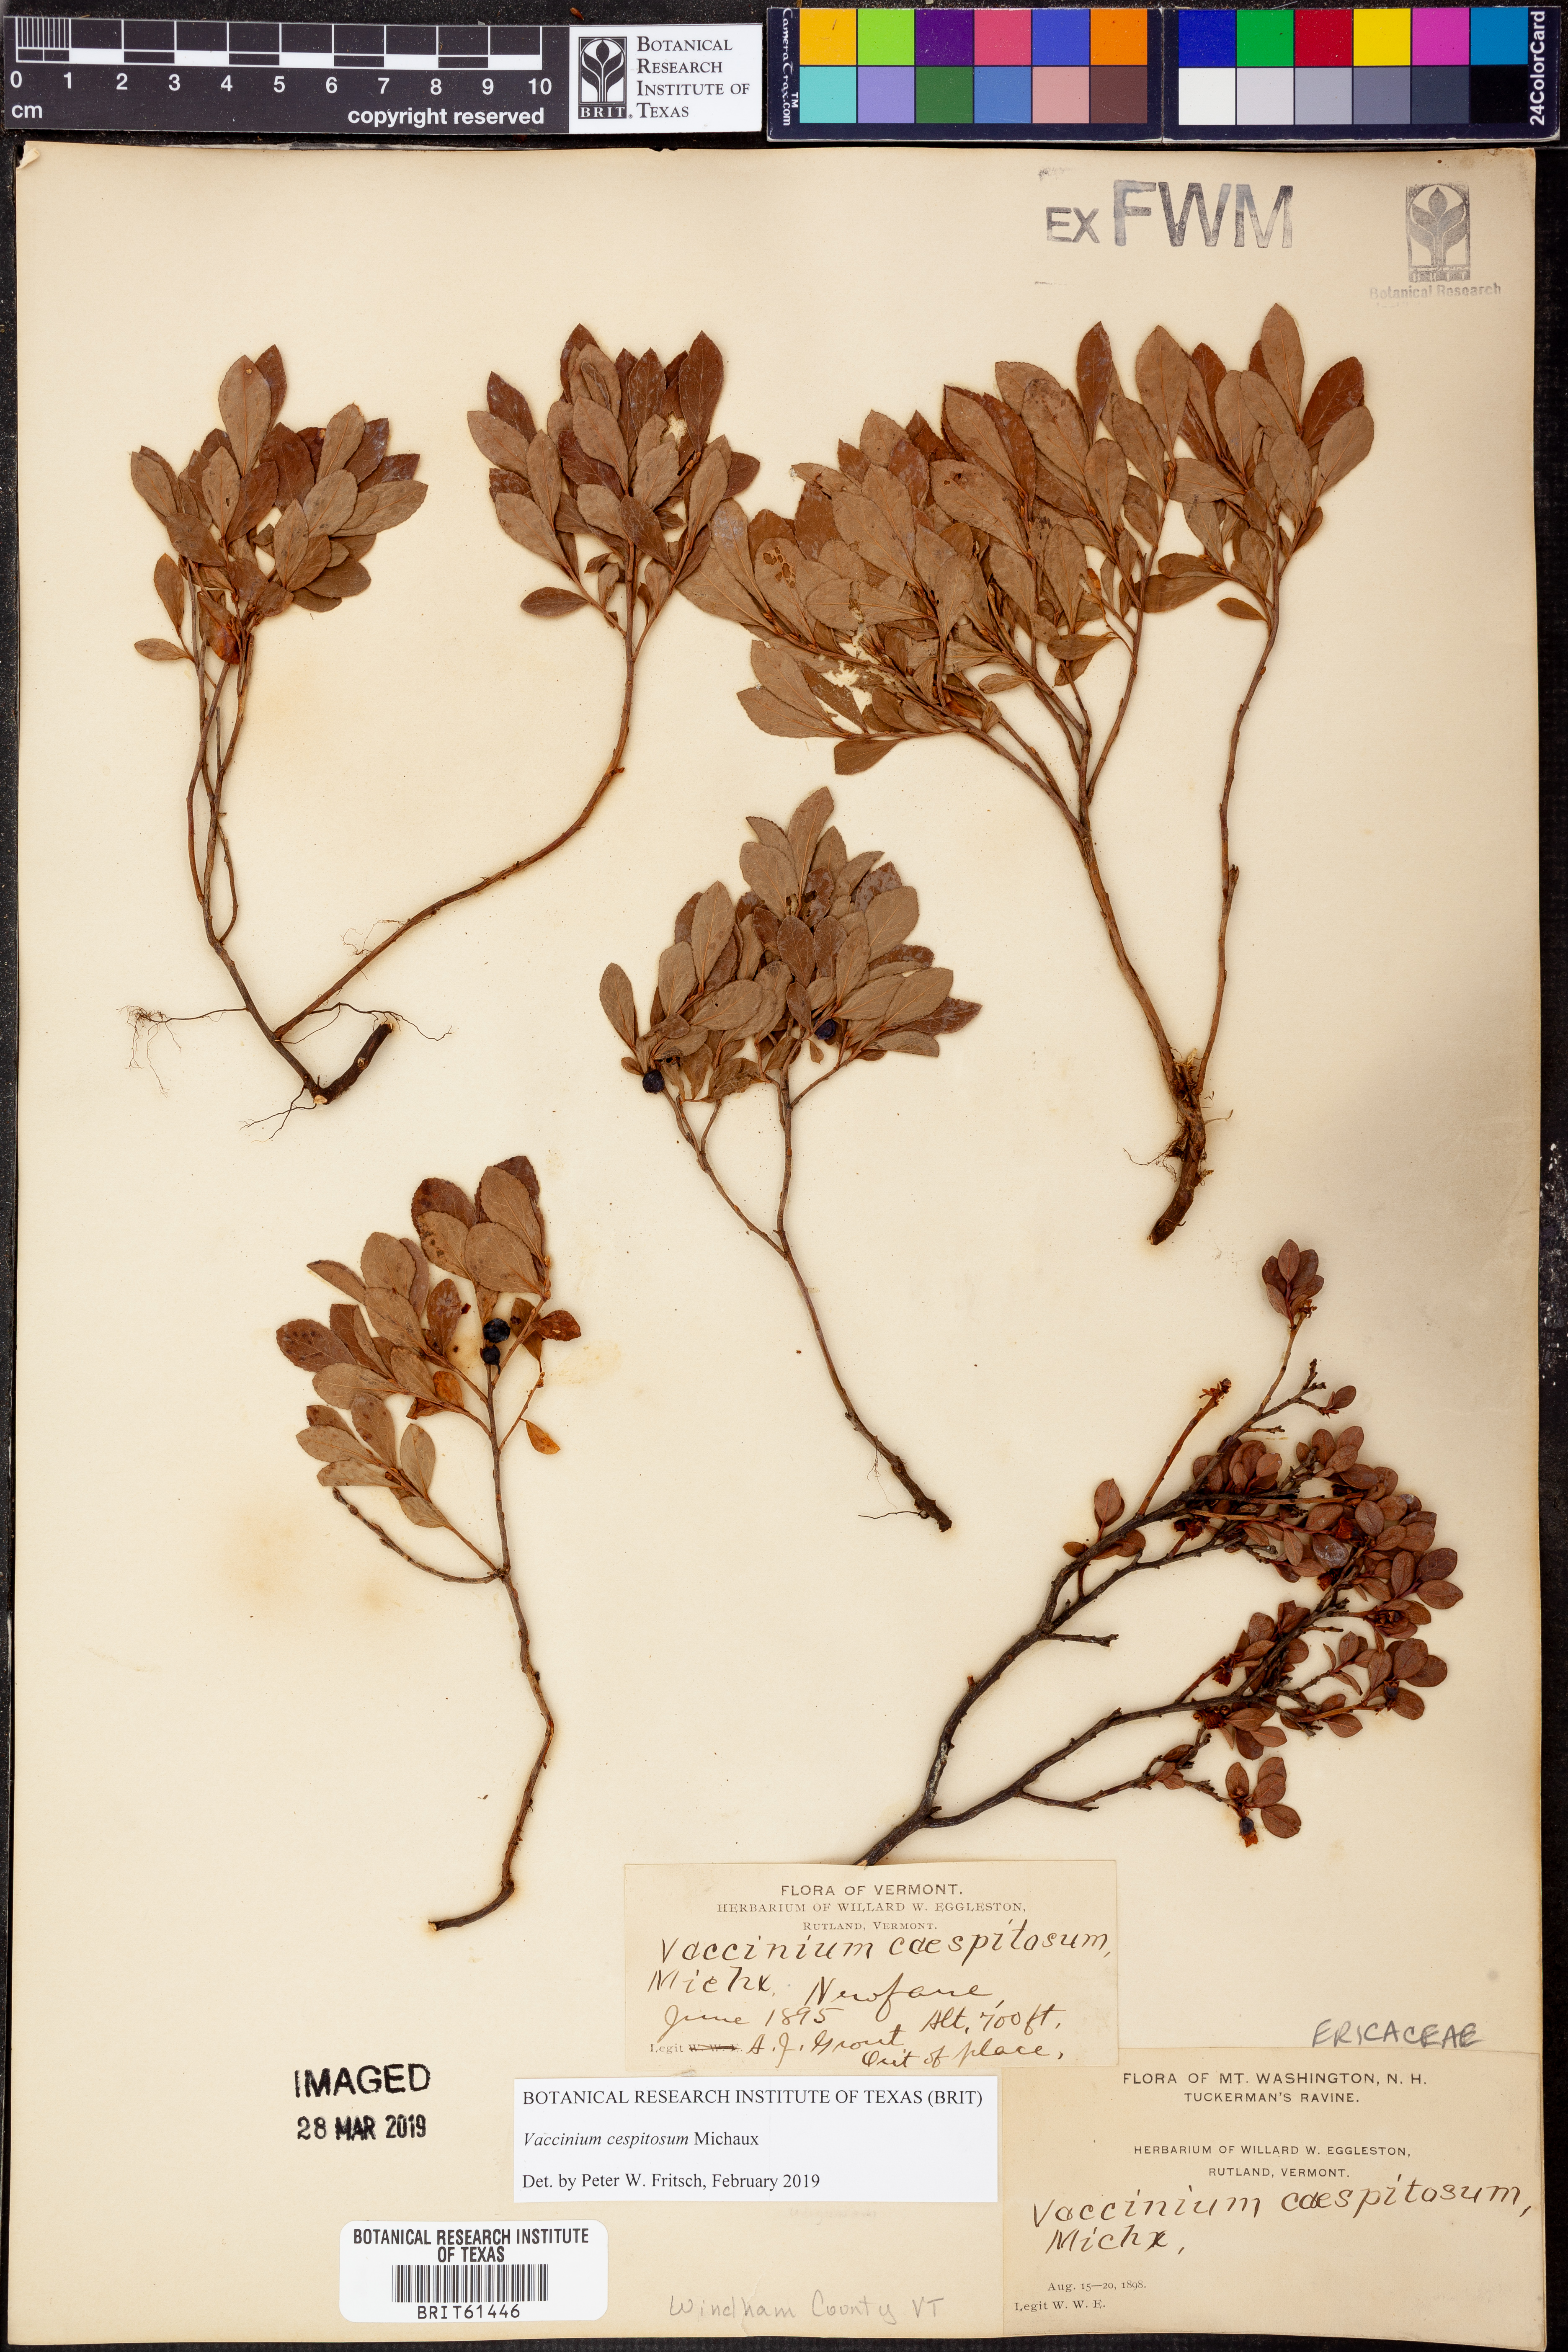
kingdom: Plantae
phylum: Tracheophyta
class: Magnoliopsida
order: Ericales
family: Ericaceae
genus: Vaccinium
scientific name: Vaccinium cespitosum
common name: Dwarf bilberry
